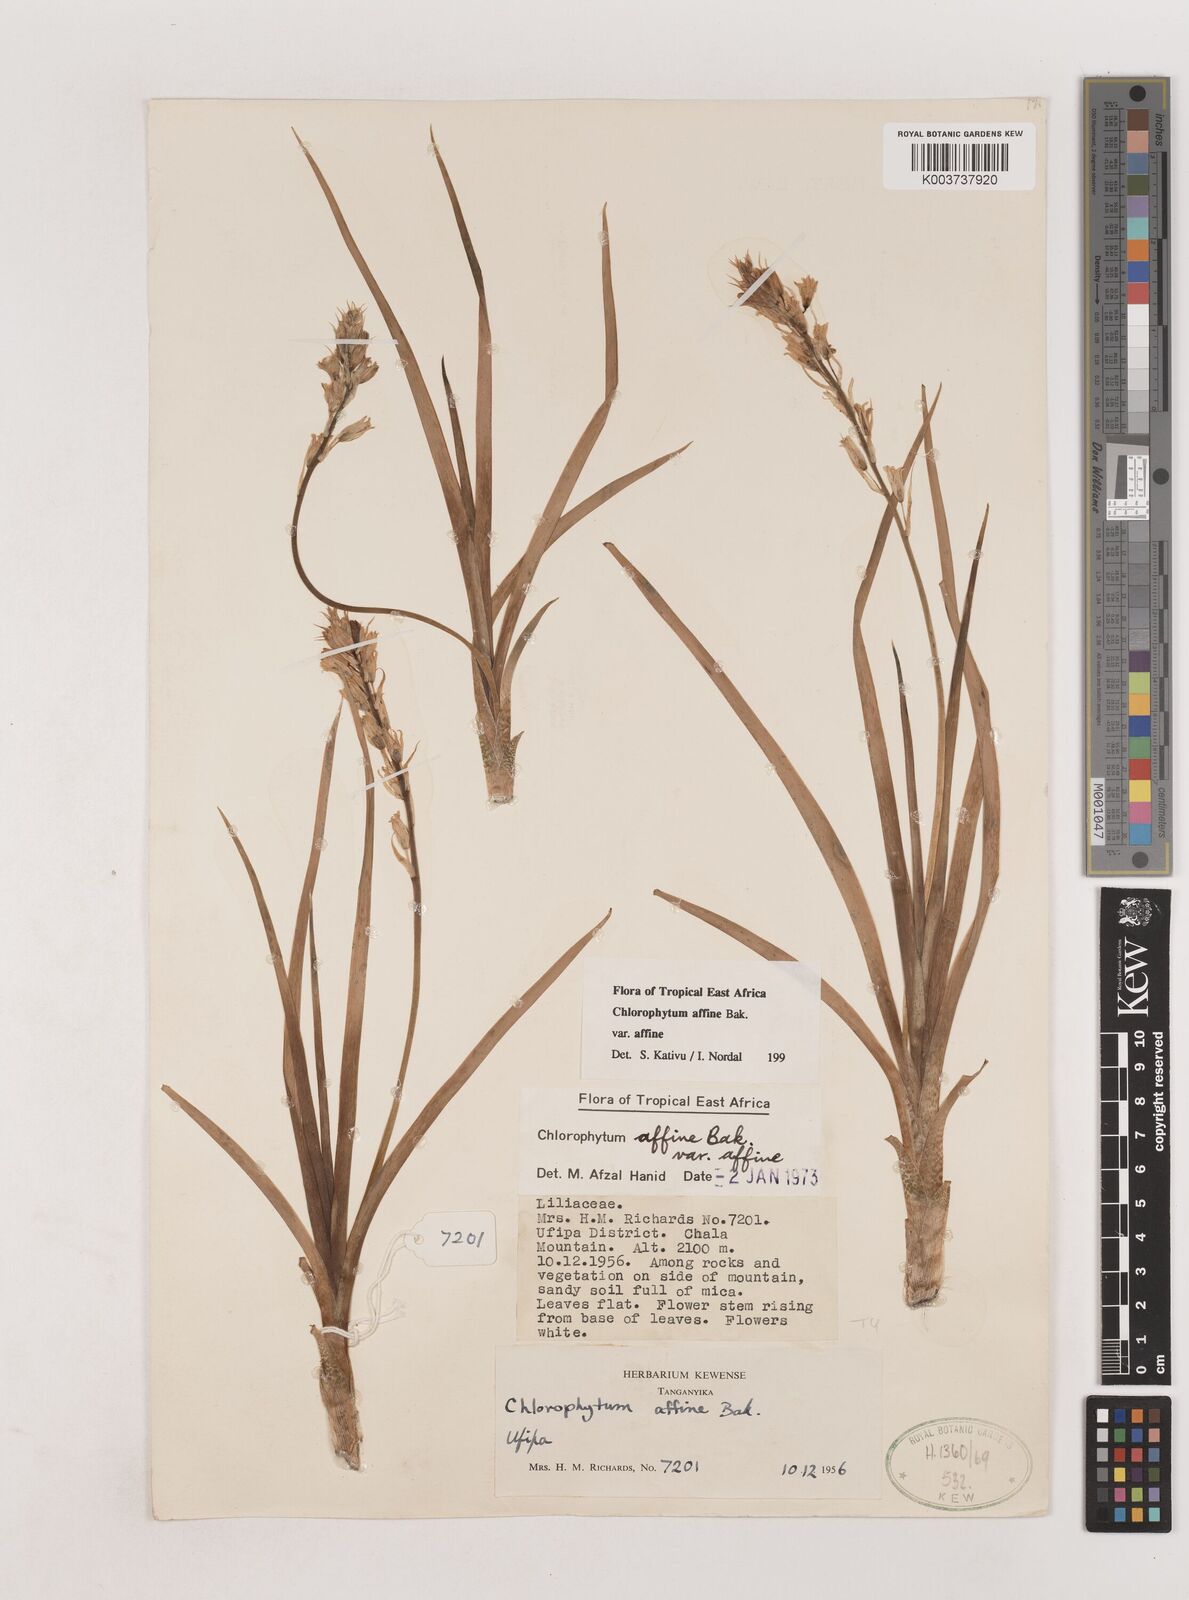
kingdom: Plantae
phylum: Tracheophyta
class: Liliopsida
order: Asparagales
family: Asparagaceae
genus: Chlorophytum
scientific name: Chlorophytum affine
